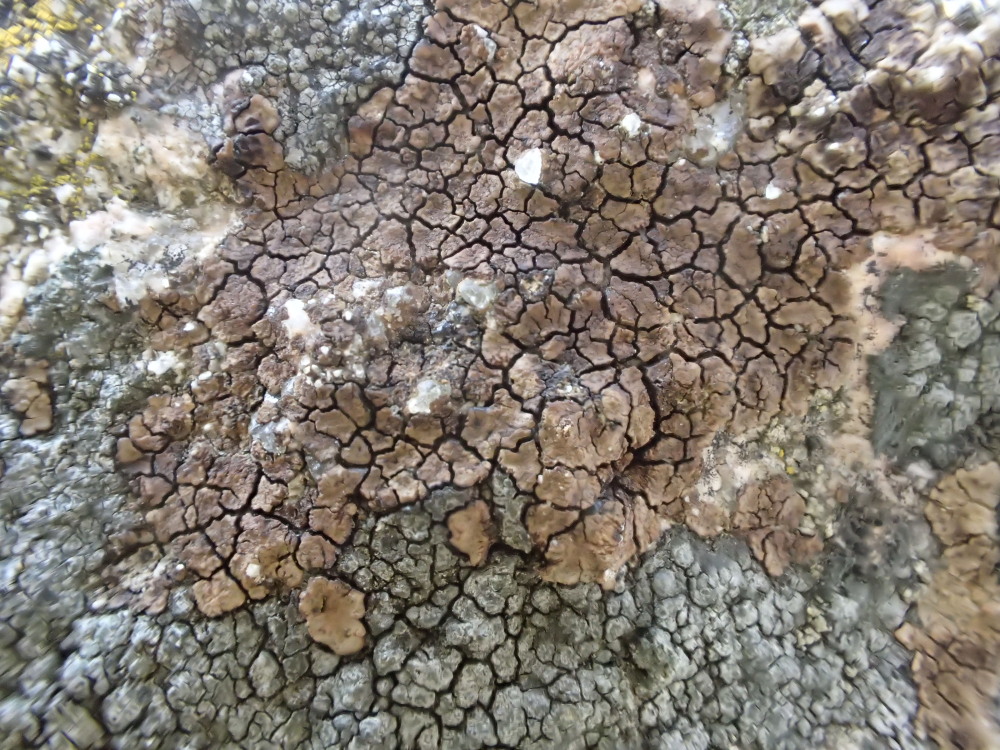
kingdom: Fungi
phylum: Ascomycota
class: Lecanoromycetes
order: Acarosporales
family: Acarosporaceae
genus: Acarospora
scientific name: Acarospora fuscata
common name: brun småsporelav
